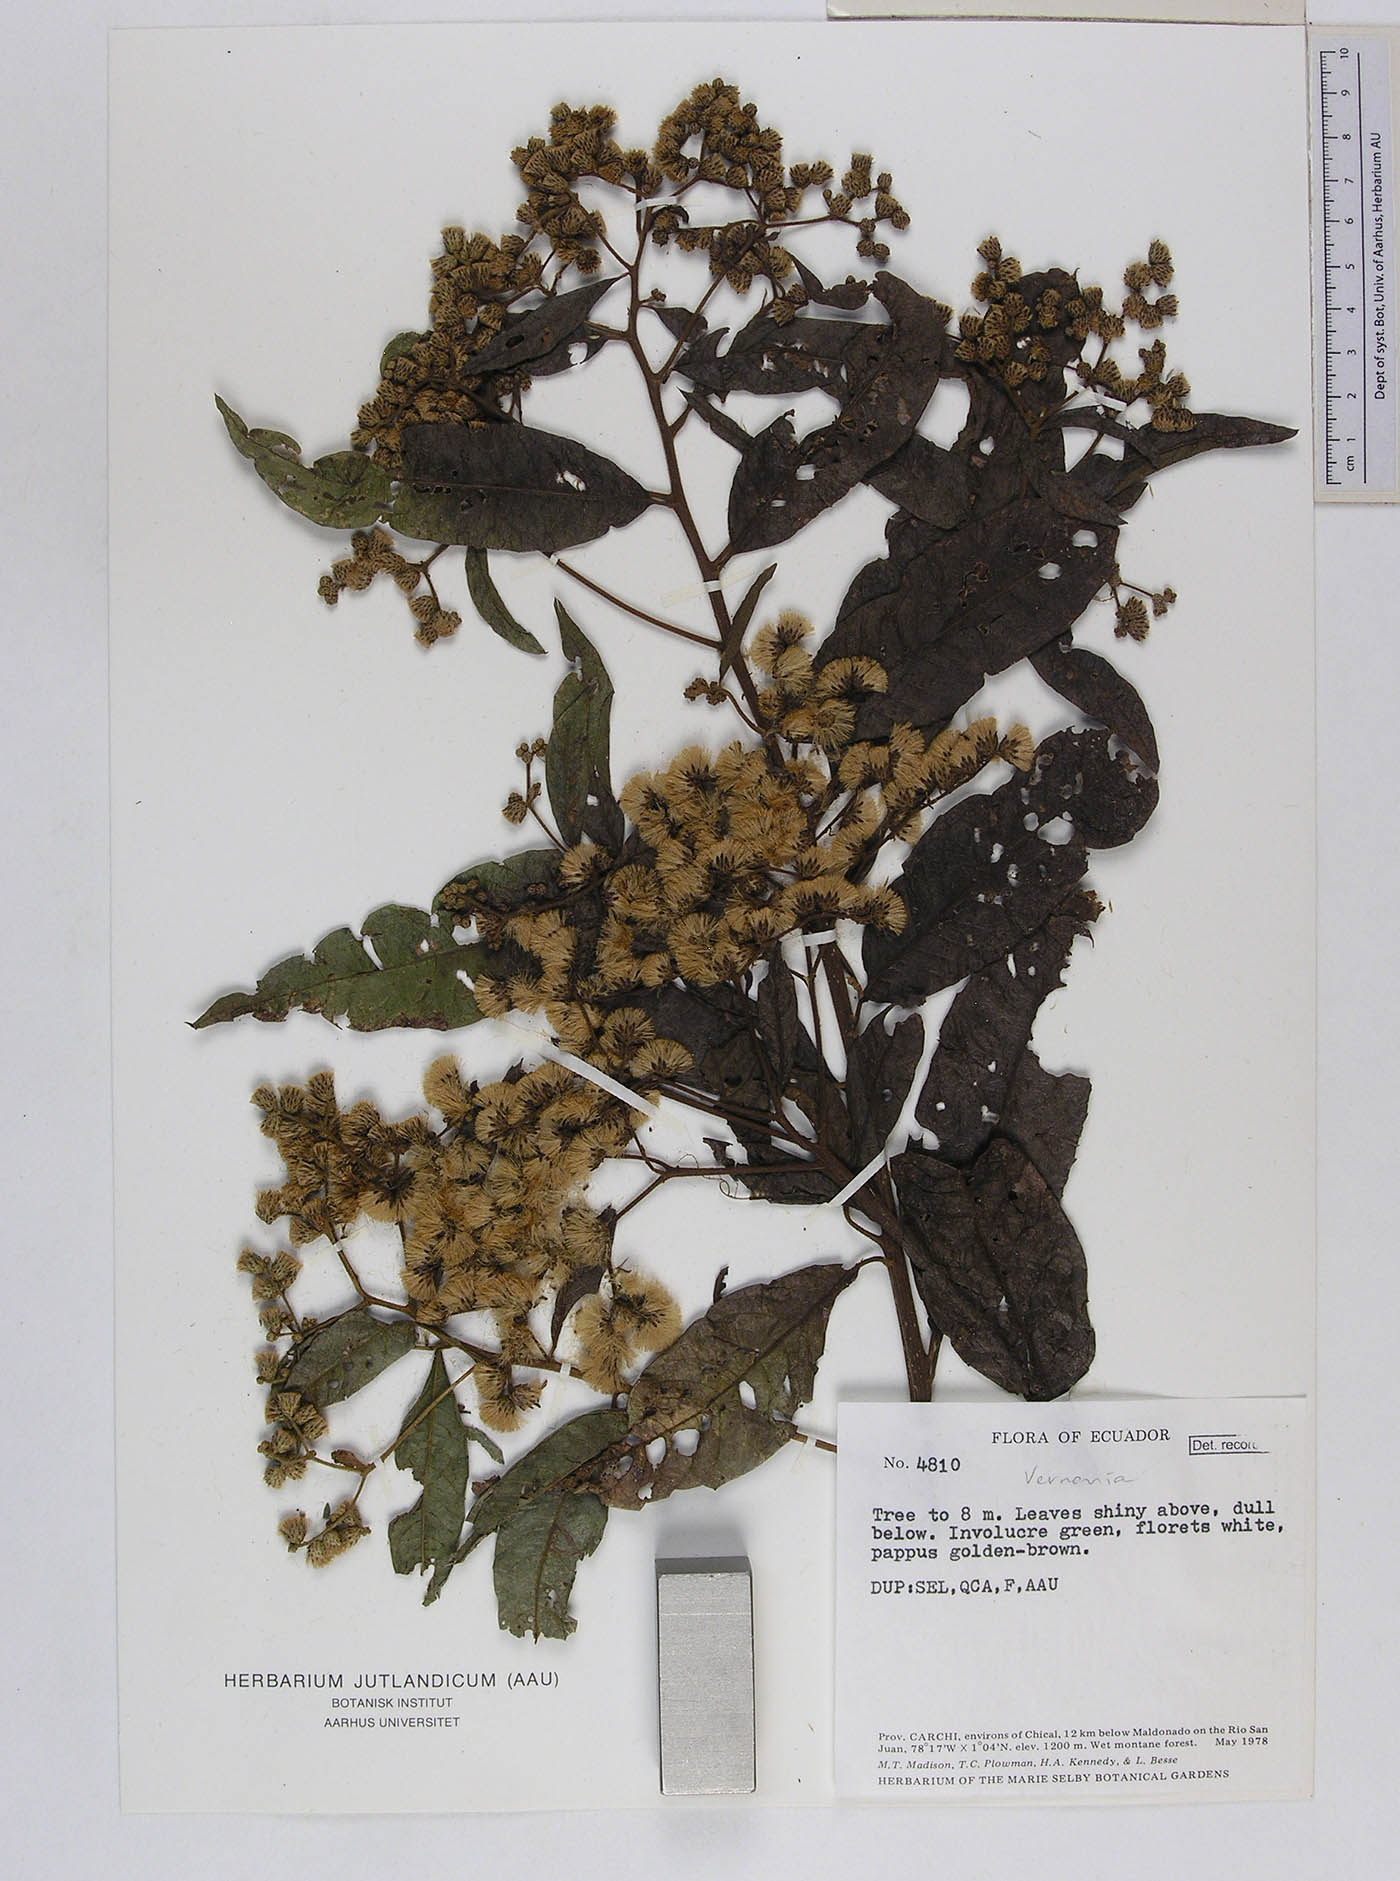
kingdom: Plantae
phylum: Tracheophyta
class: Magnoliopsida
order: Asterales
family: Asteraceae
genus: Vernonanthura
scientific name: Vernonanthura patens
